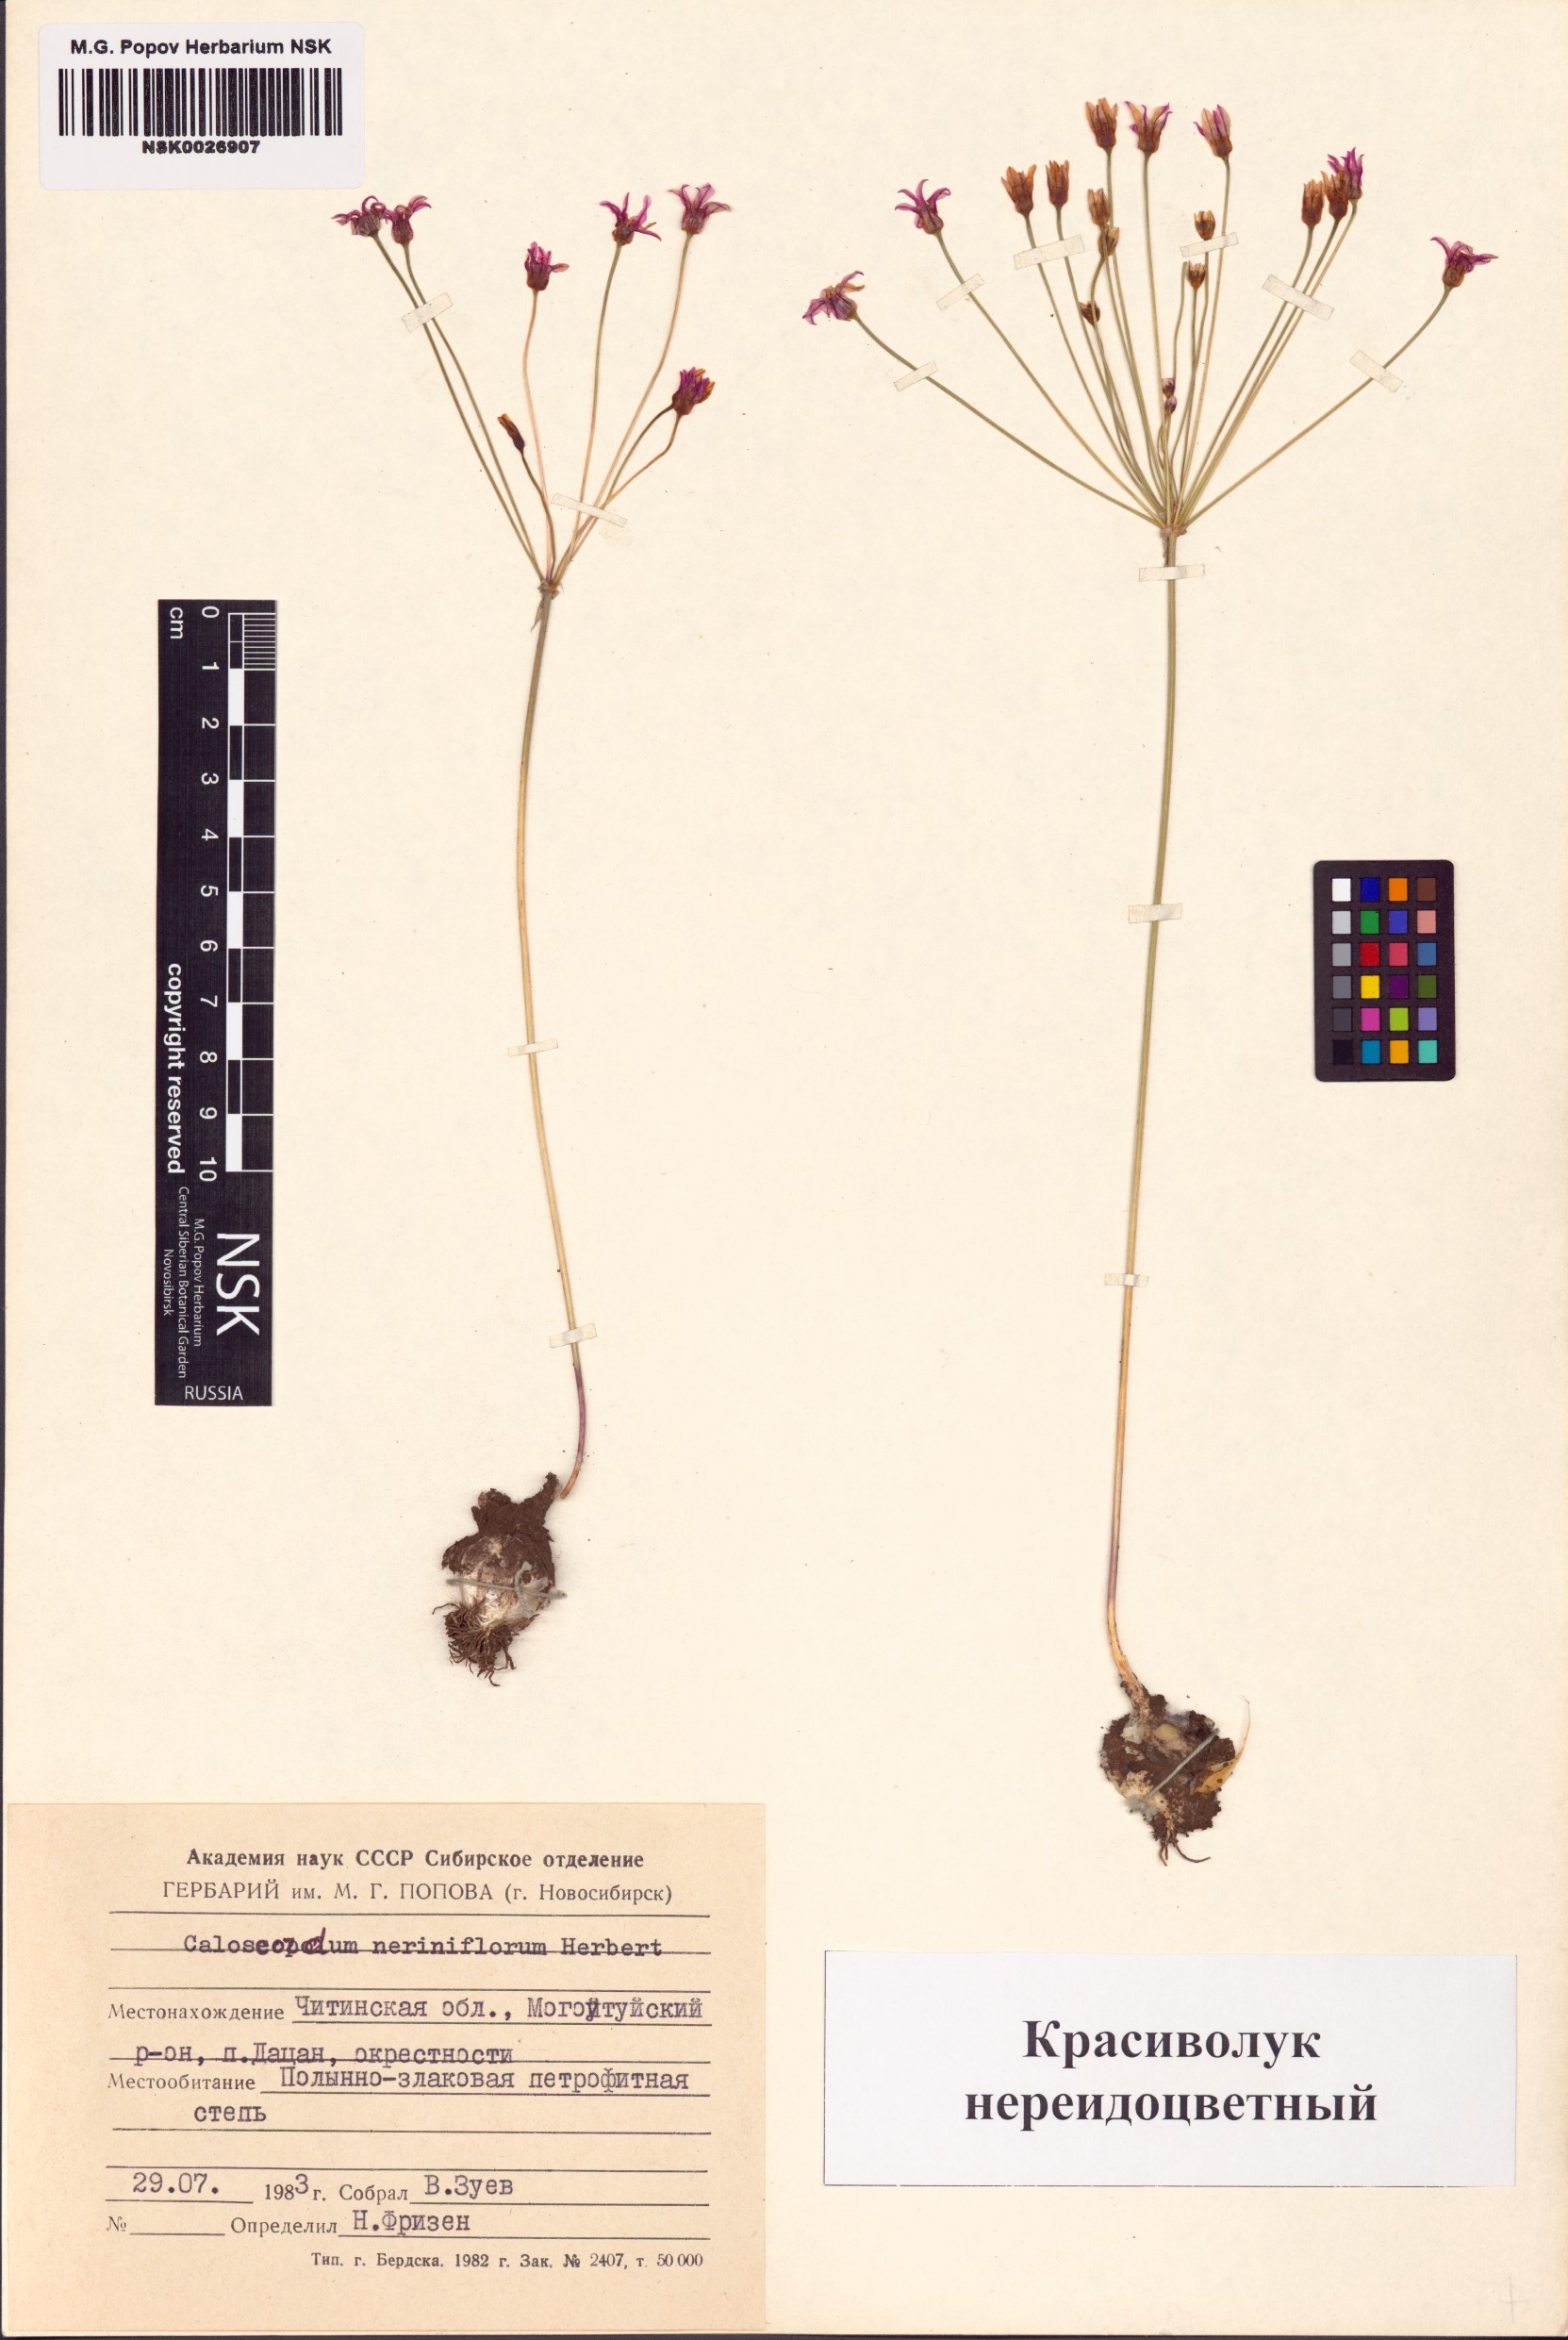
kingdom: Plantae
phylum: Tracheophyta
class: Liliopsida
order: Asparagales
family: Amaryllidaceae
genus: Allium
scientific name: Allium neriniflorum
